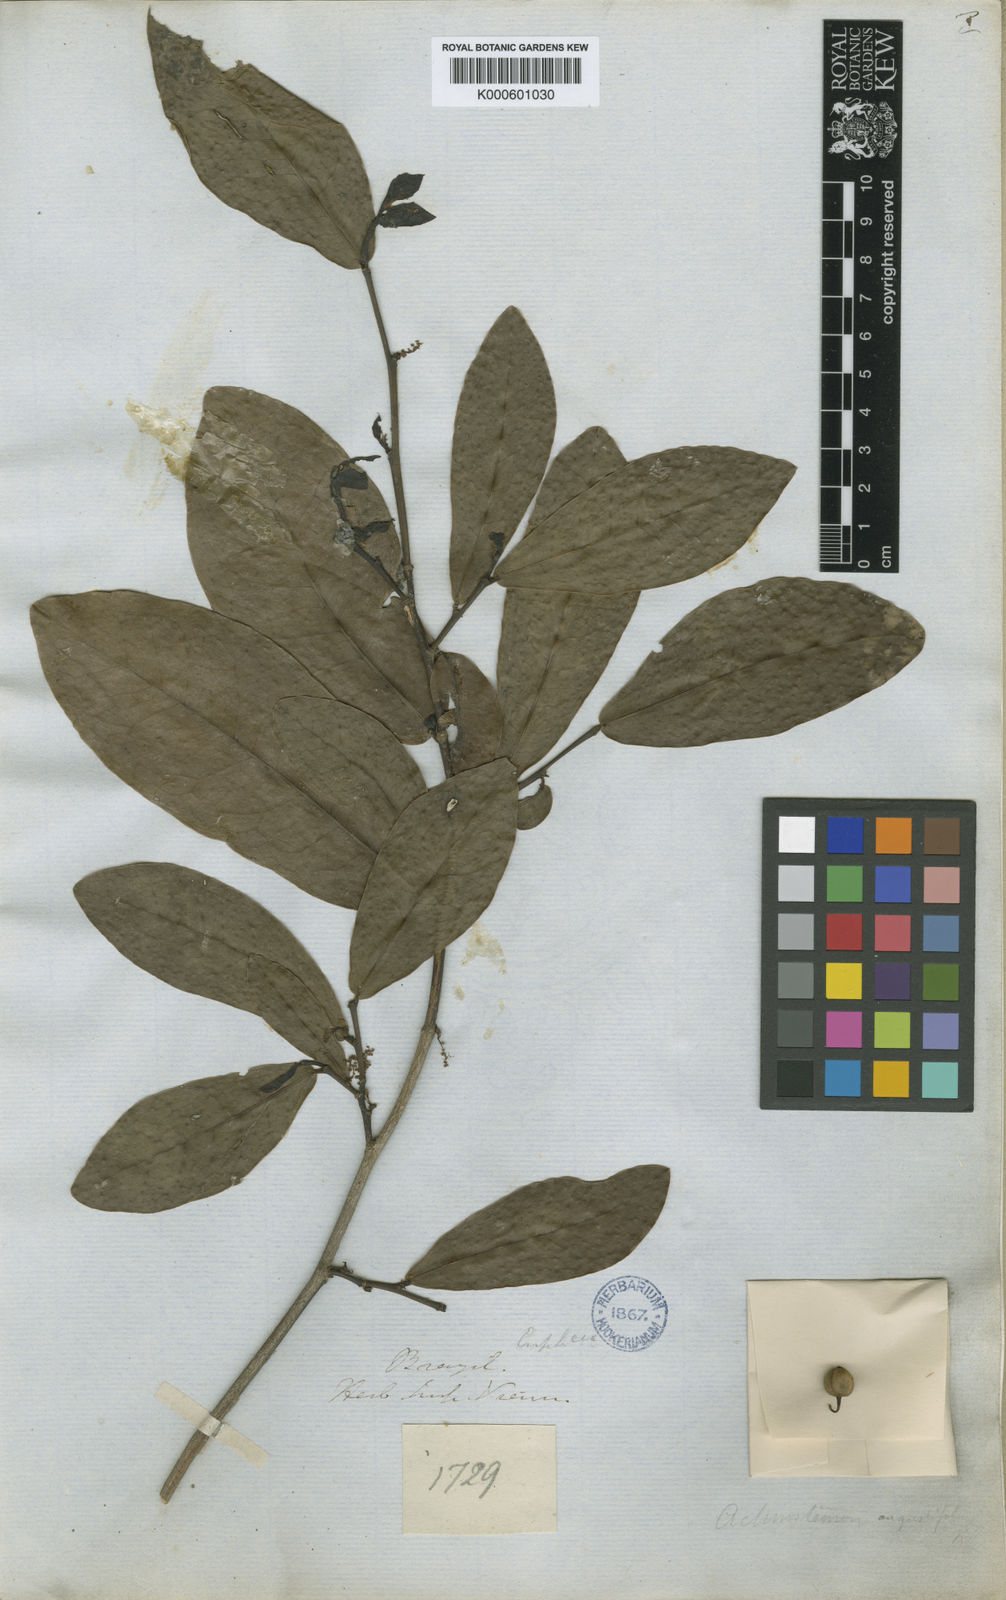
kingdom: Plantae
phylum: Tracheophyta
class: Magnoliopsida
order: Malpighiales
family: Euphorbiaceae
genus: Actinostemon
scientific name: Actinostemon
